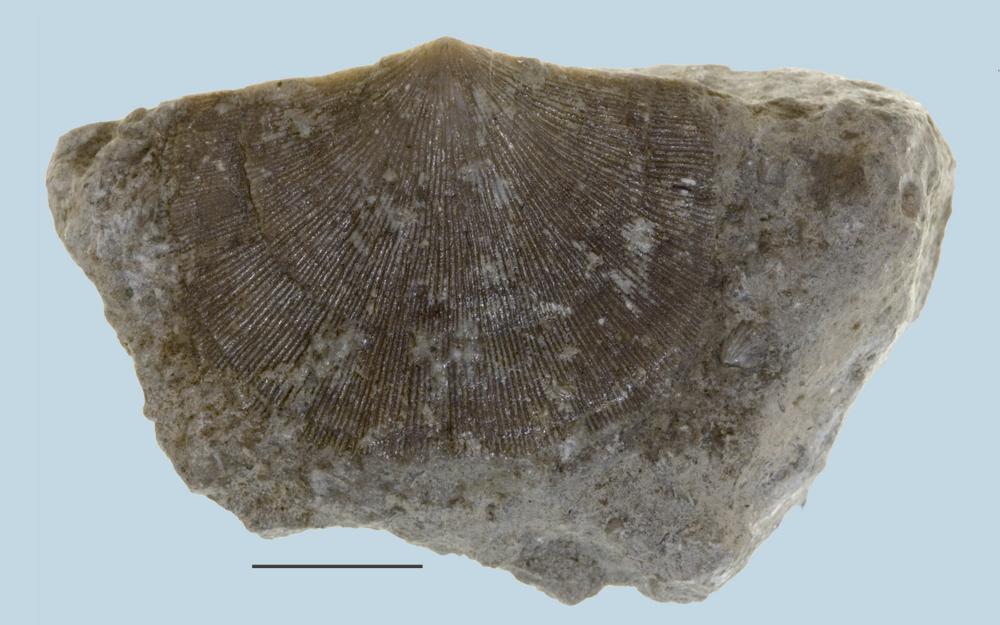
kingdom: Animalia
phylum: Brachiopoda
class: Rhynchonellata
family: Clitambonitidae
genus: Clinambon
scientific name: Clinambon anomalus
